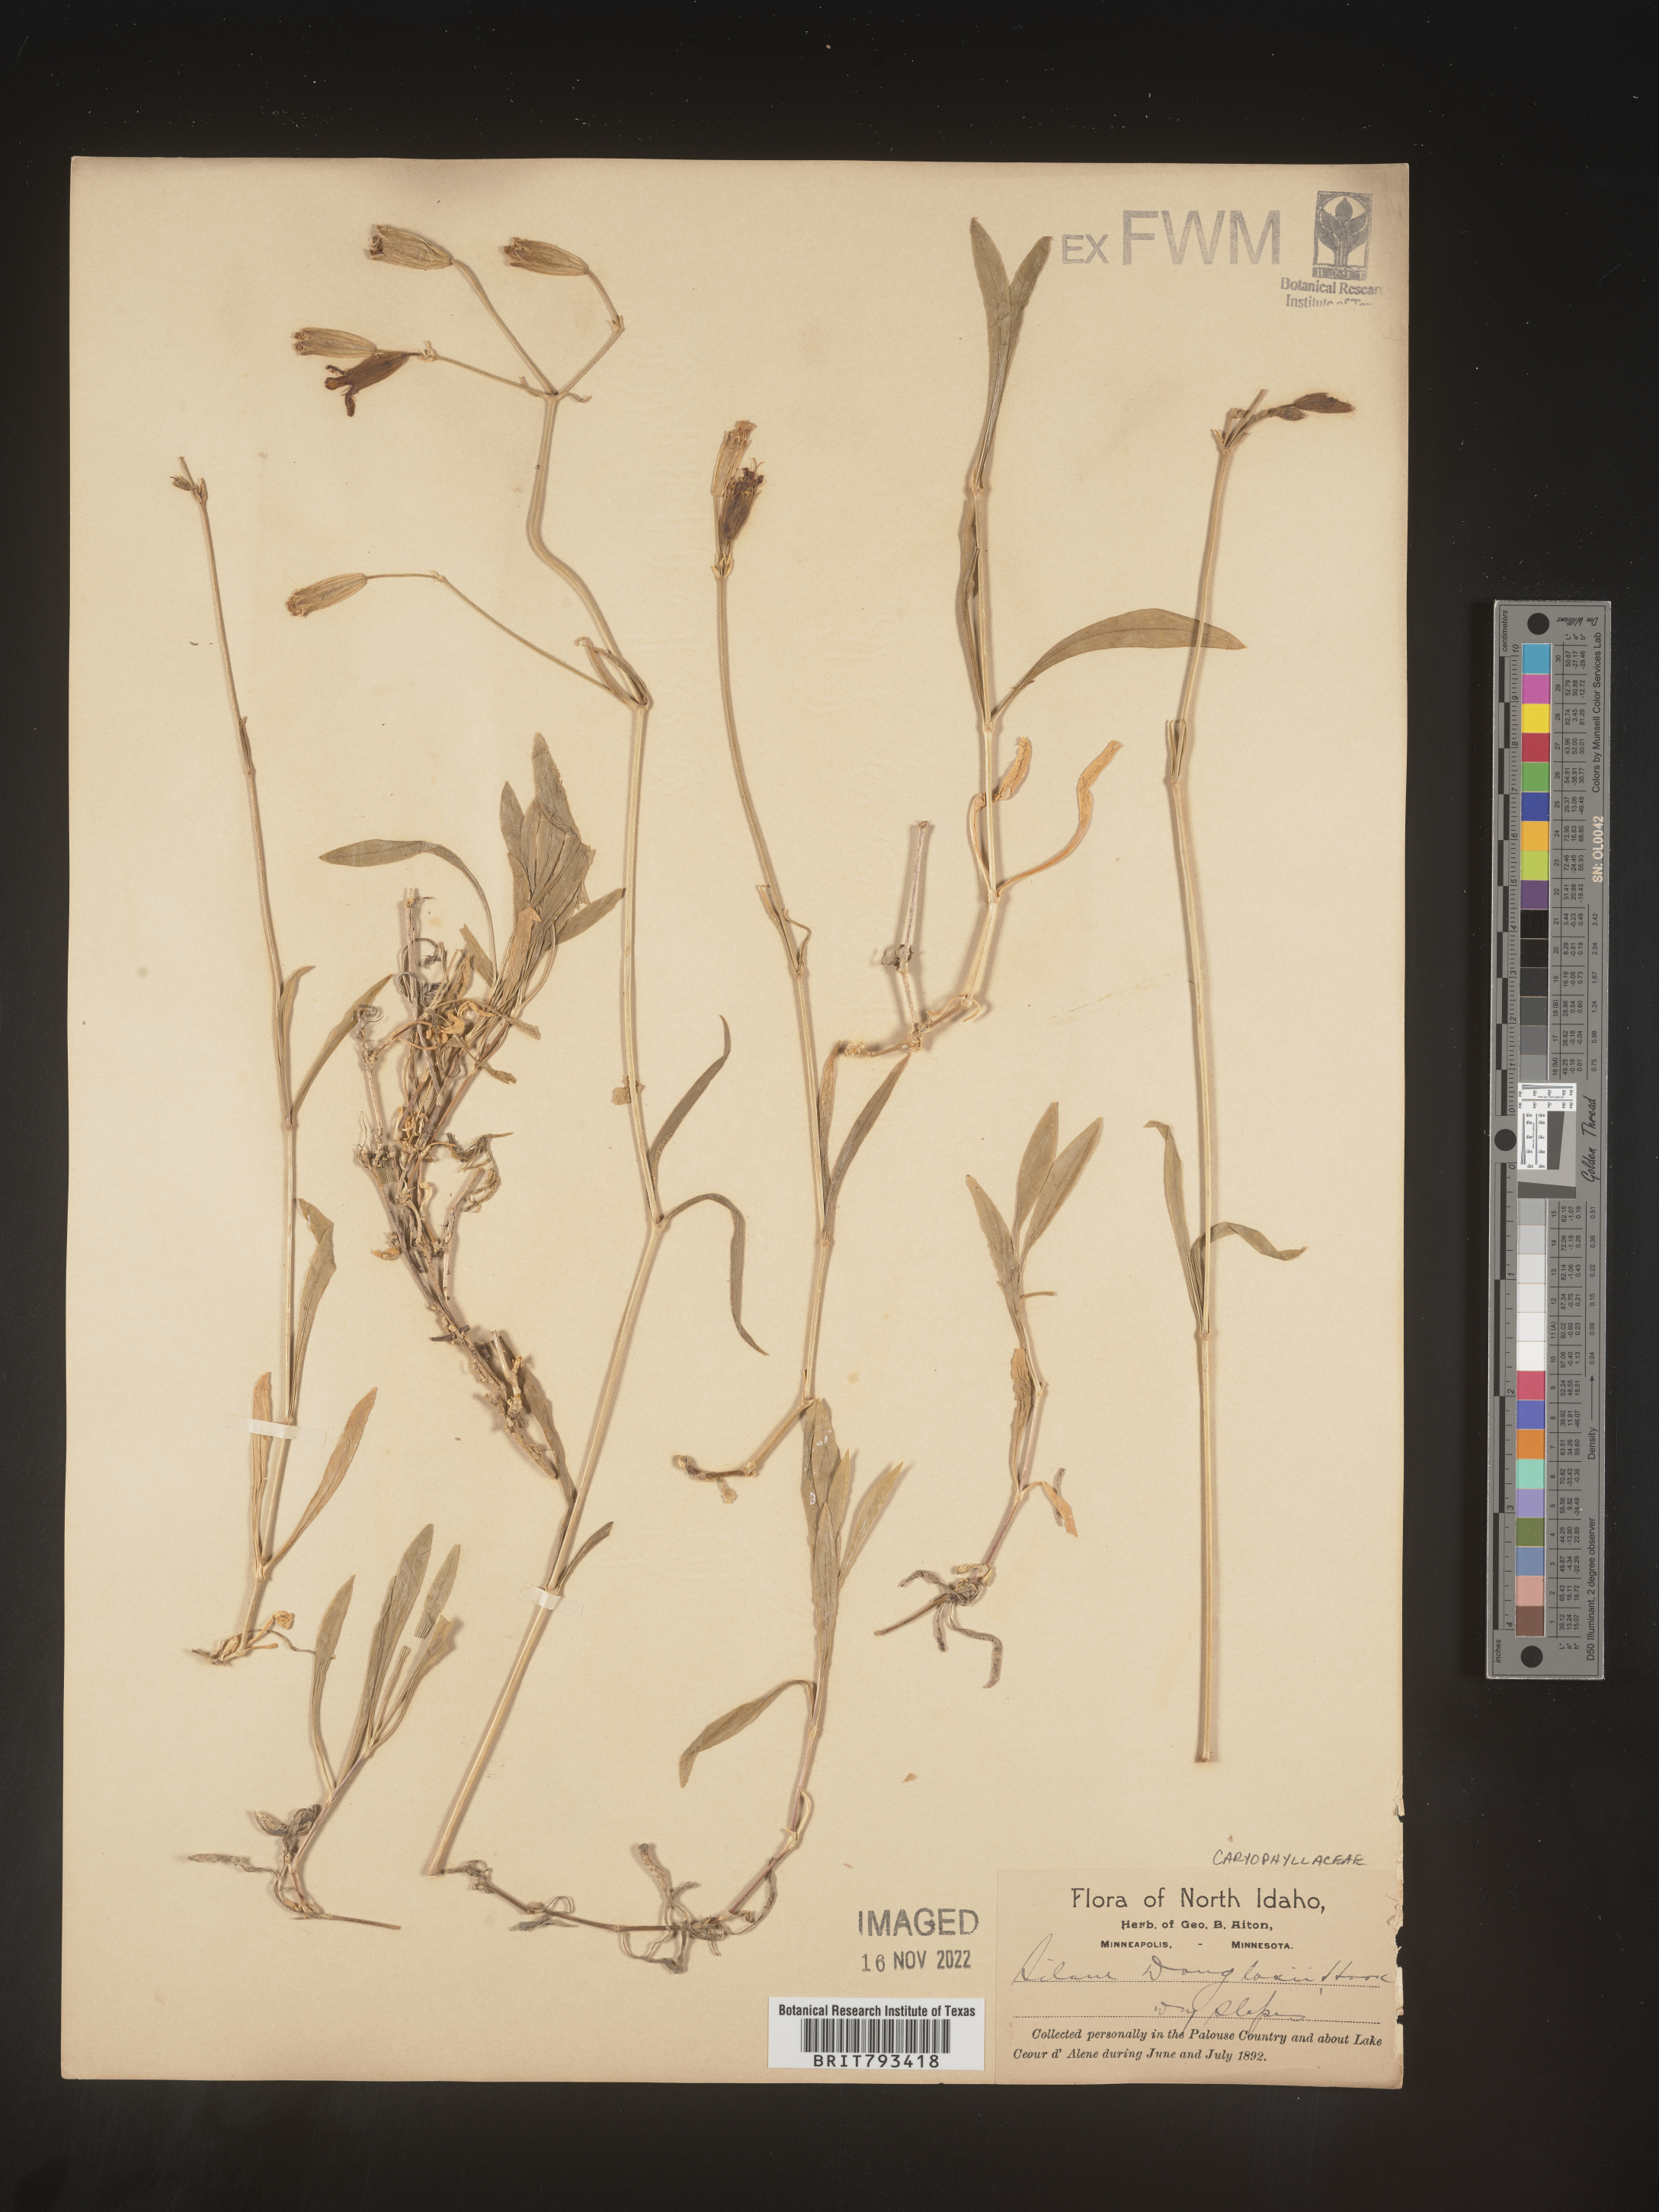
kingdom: Plantae
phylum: Tracheophyta
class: Magnoliopsida
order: Caryophyllales
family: Caryophyllaceae
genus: Silene
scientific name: Silene douglasii
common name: Douglas's catchfly
